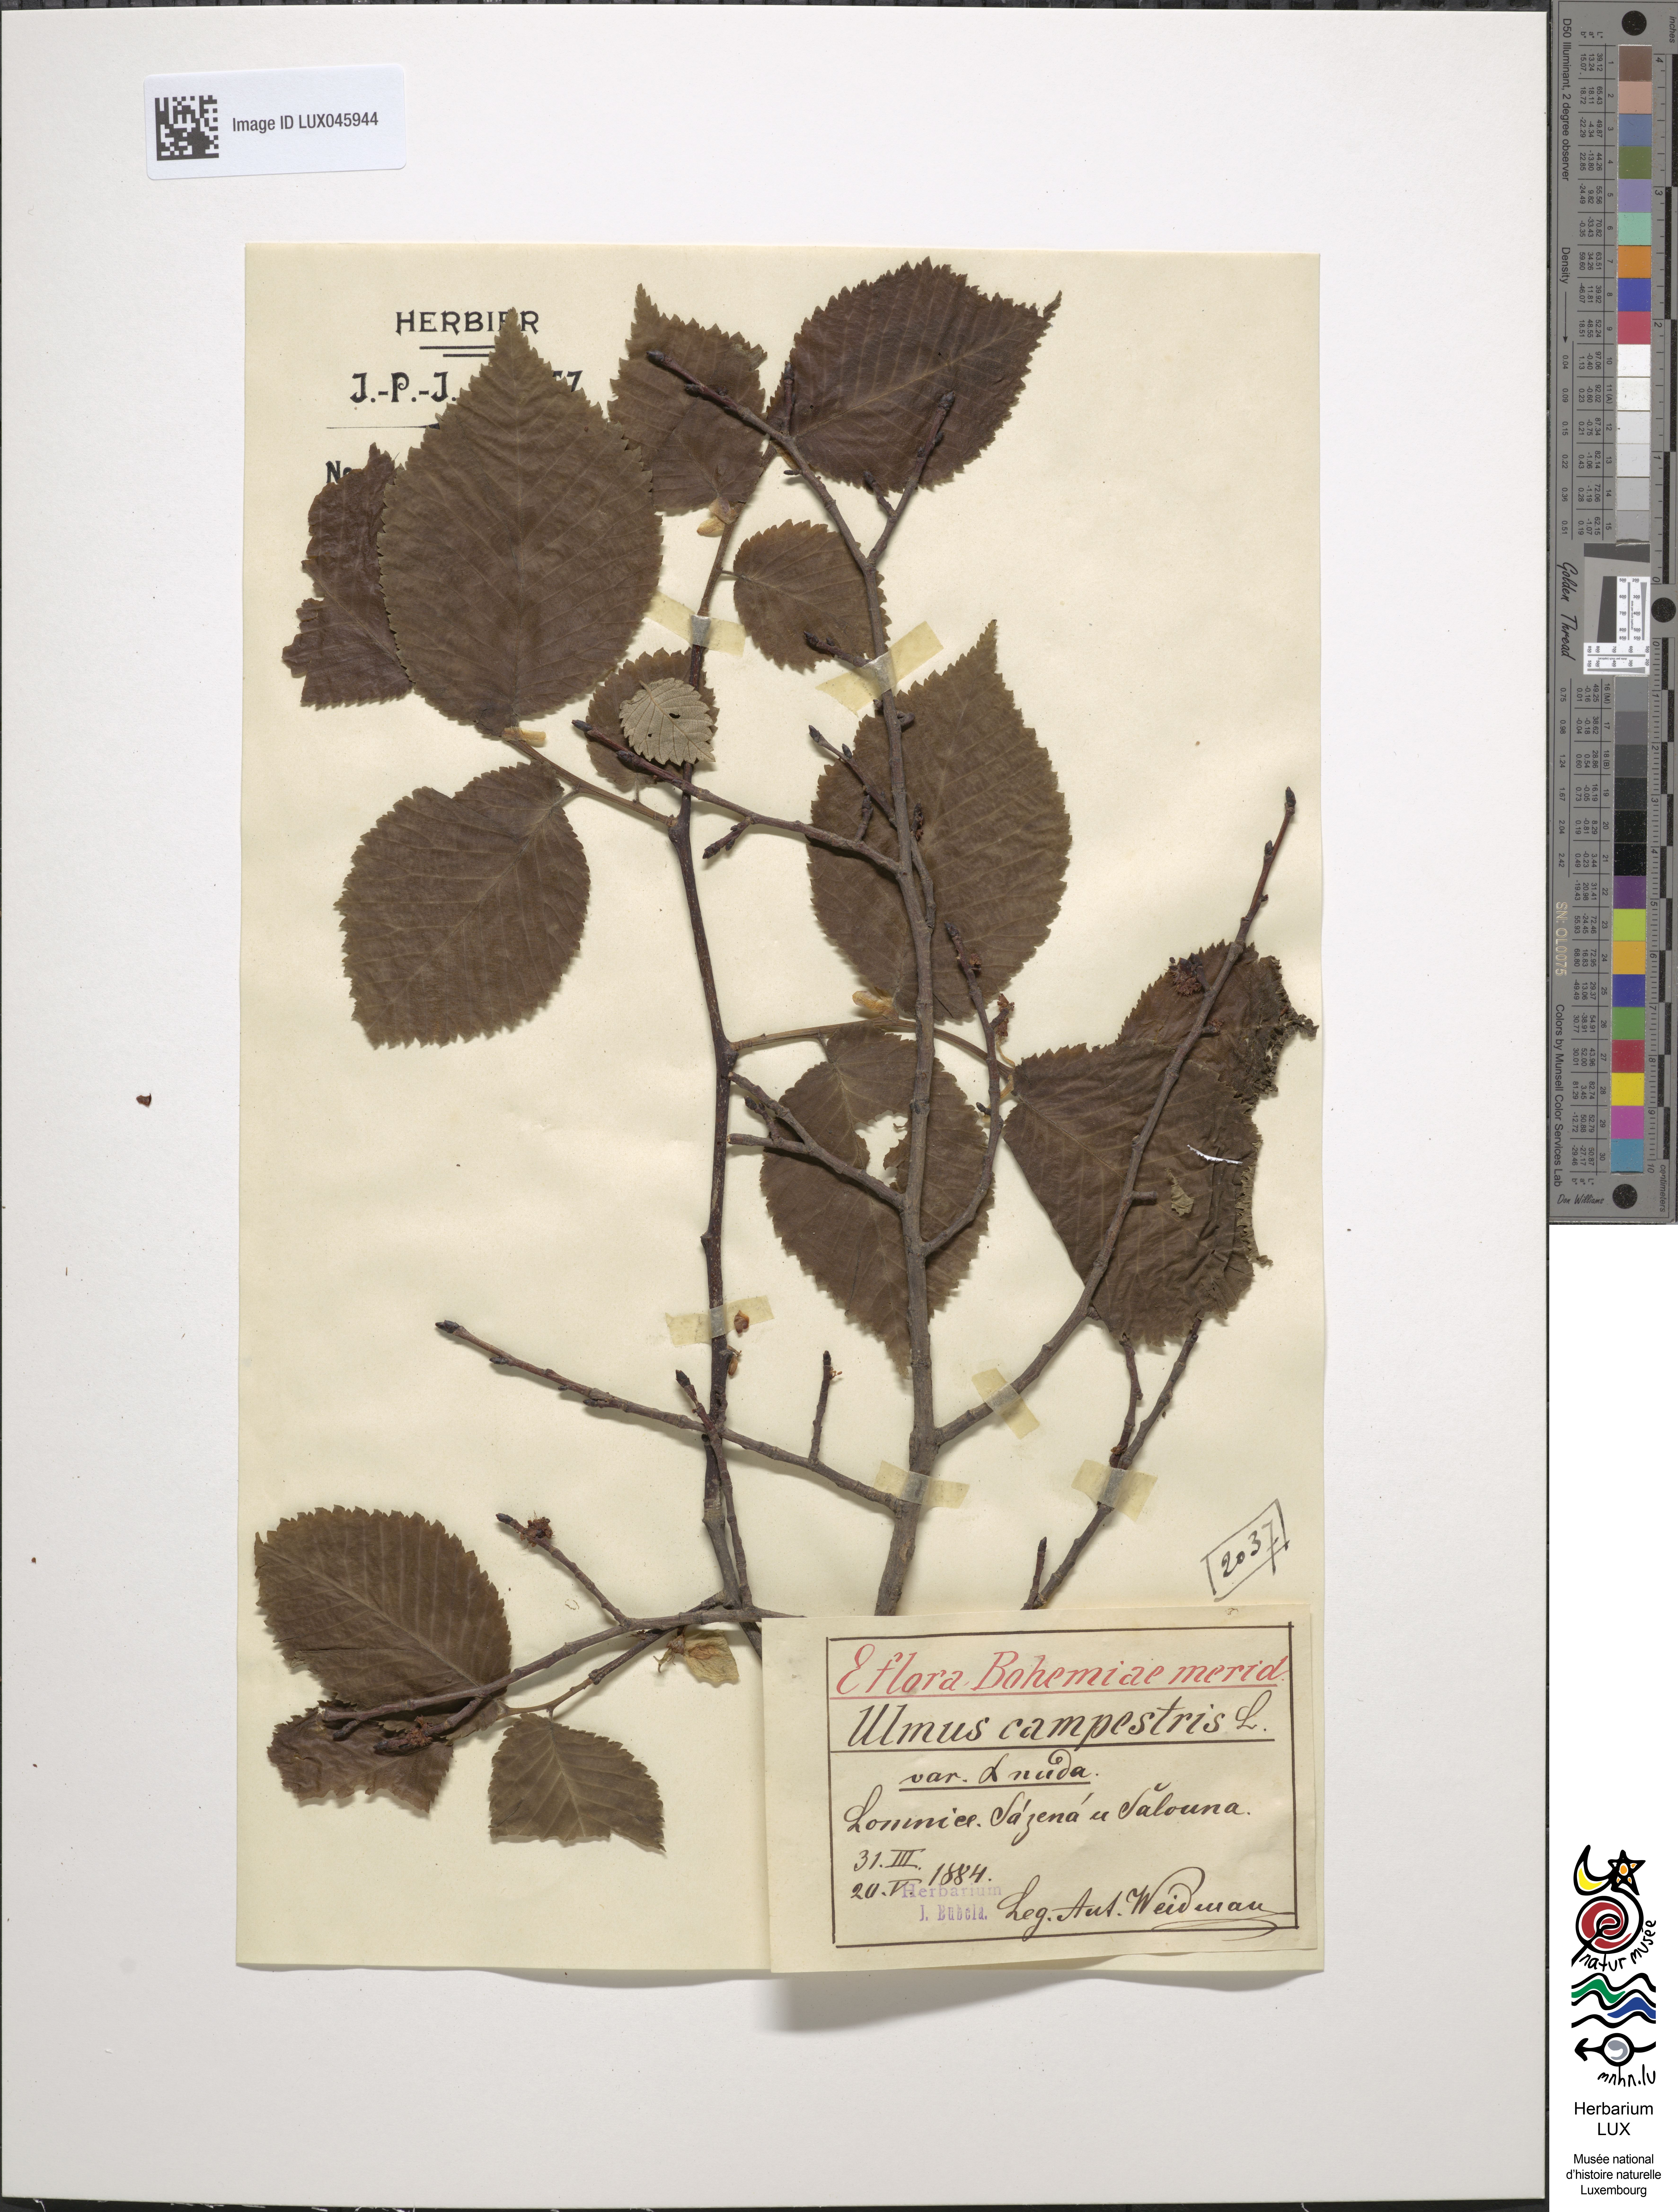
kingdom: Plantae
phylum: Tracheophyta
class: Magnoliopsida
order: Rosales
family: Ulmaceae
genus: Ulmus
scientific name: Ulmus minor
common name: Small-leaved elm
